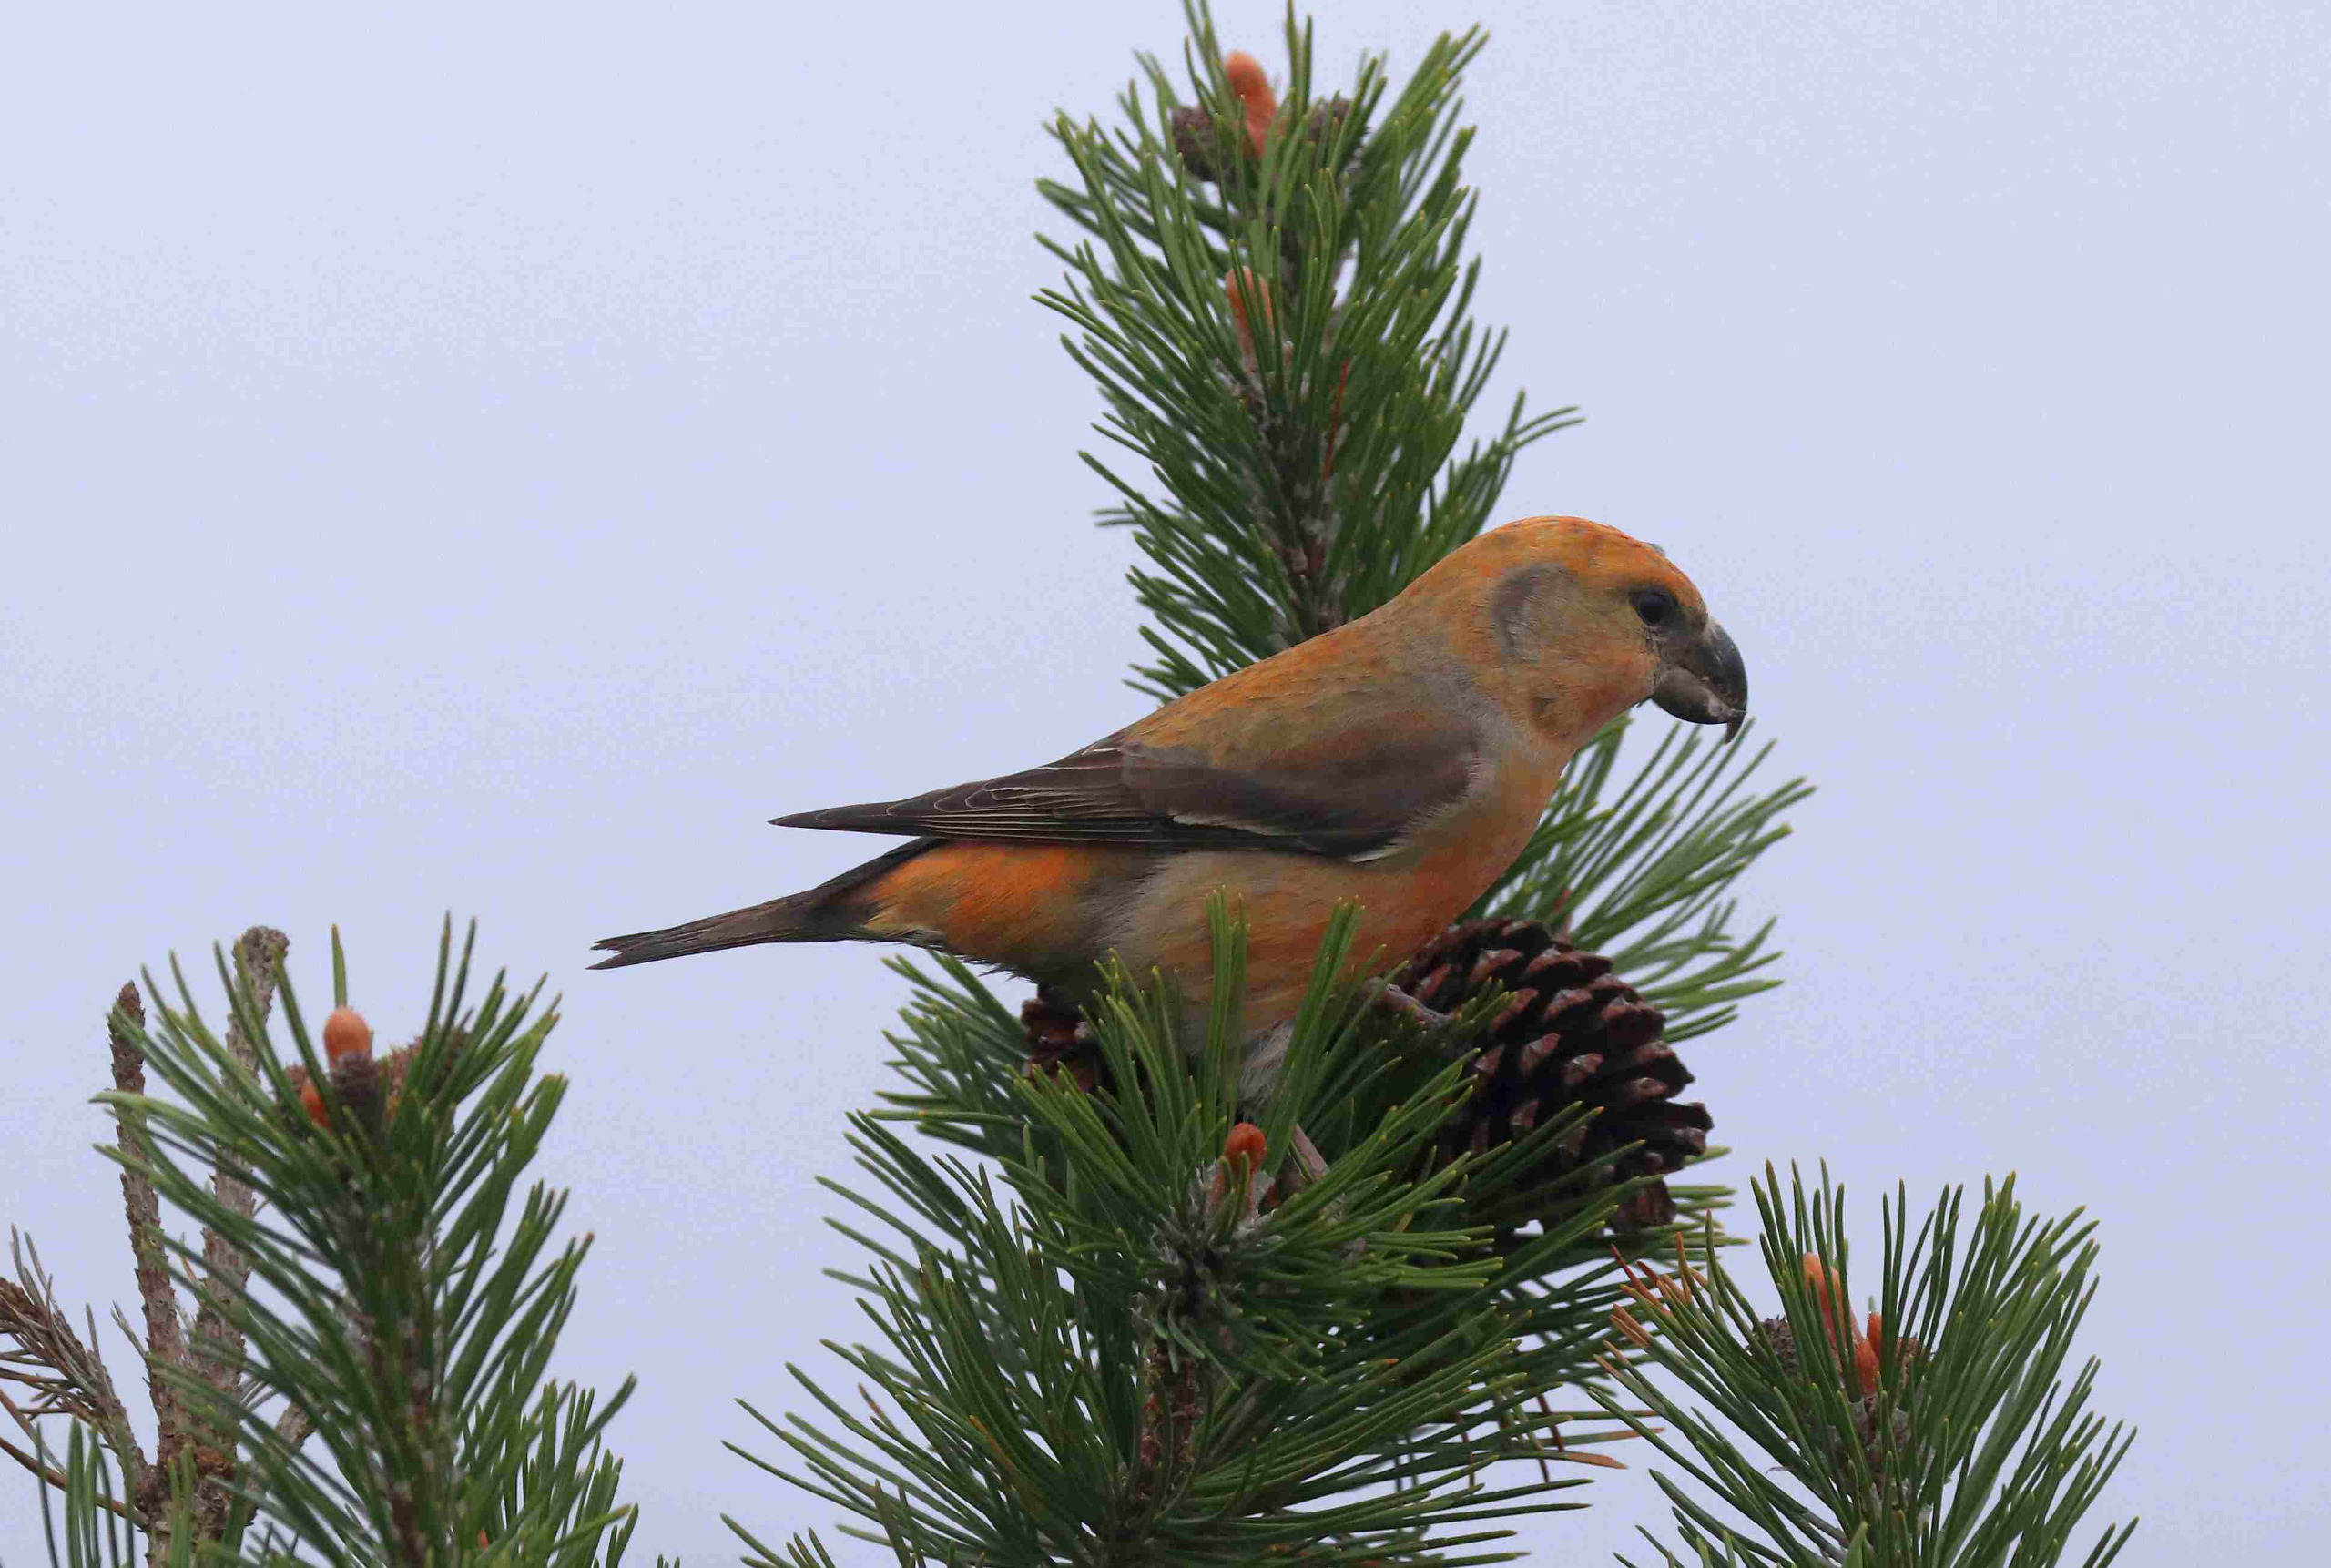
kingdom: Animalia
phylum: Chordata
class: Aves
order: Passeriformes
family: Fringillidae
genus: Loxia
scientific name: Loxia pytyopsittacus
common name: Stor korsnæb
